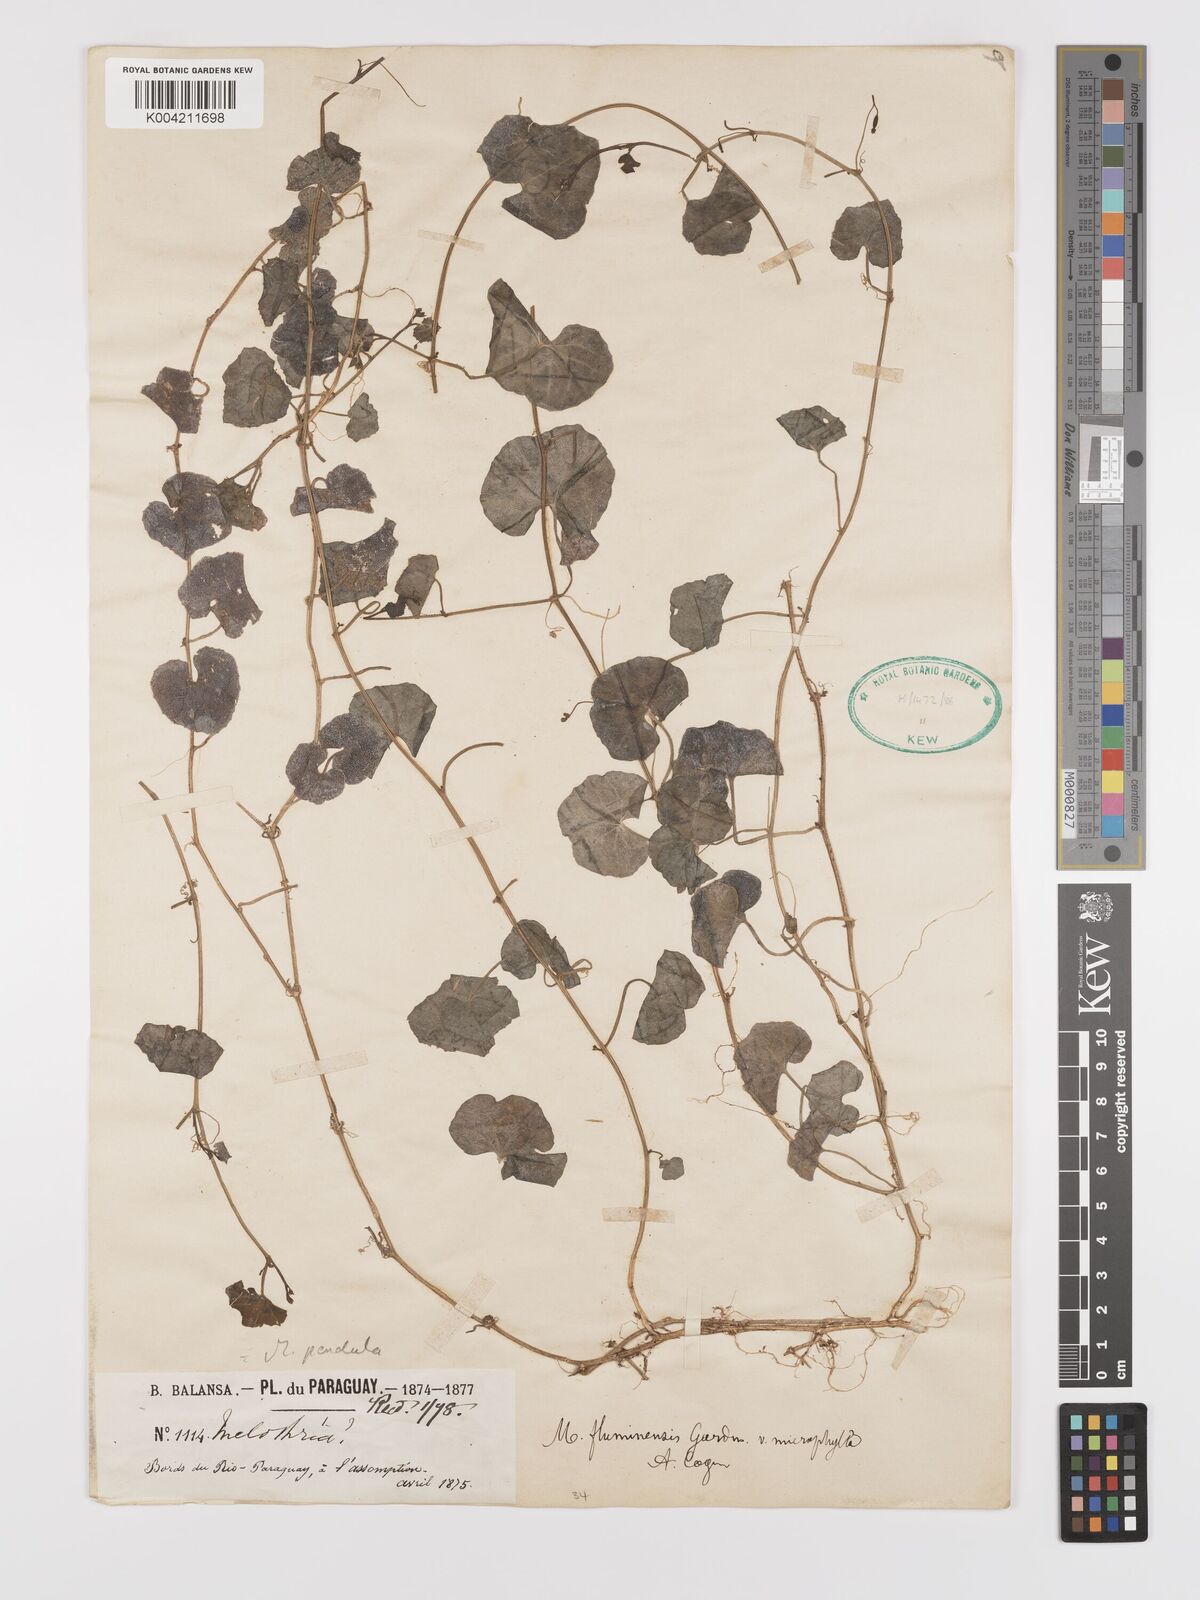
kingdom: Plantae
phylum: Tracheophyta
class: Magnoliopsida
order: Cucurbitales
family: Cucurbitaceae
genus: Melothria
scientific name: Melothria
